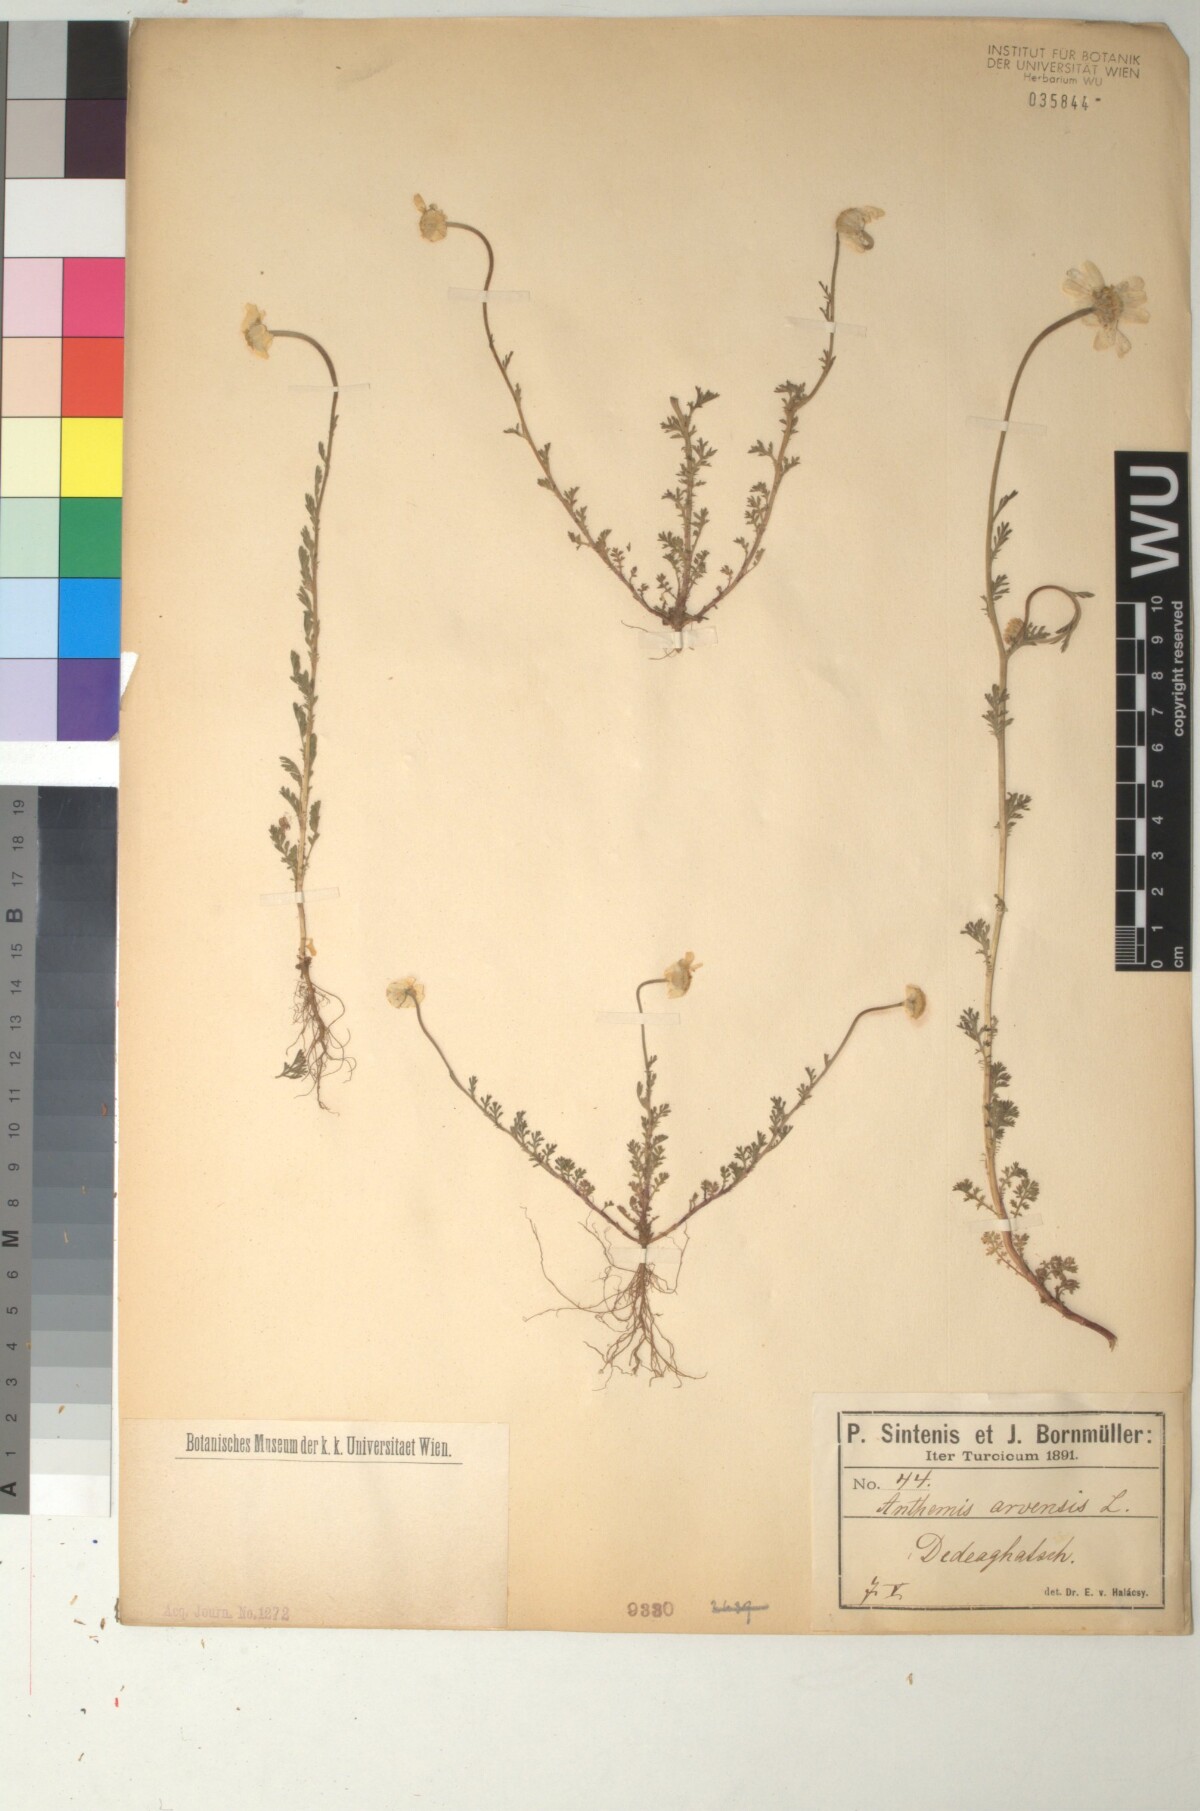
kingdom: Plantae
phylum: Tracheophyta
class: Magnoliopsida
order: Asterales
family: Asteraceae
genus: Anthemis
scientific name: Anthemis arvensis
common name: Corn chamomile
